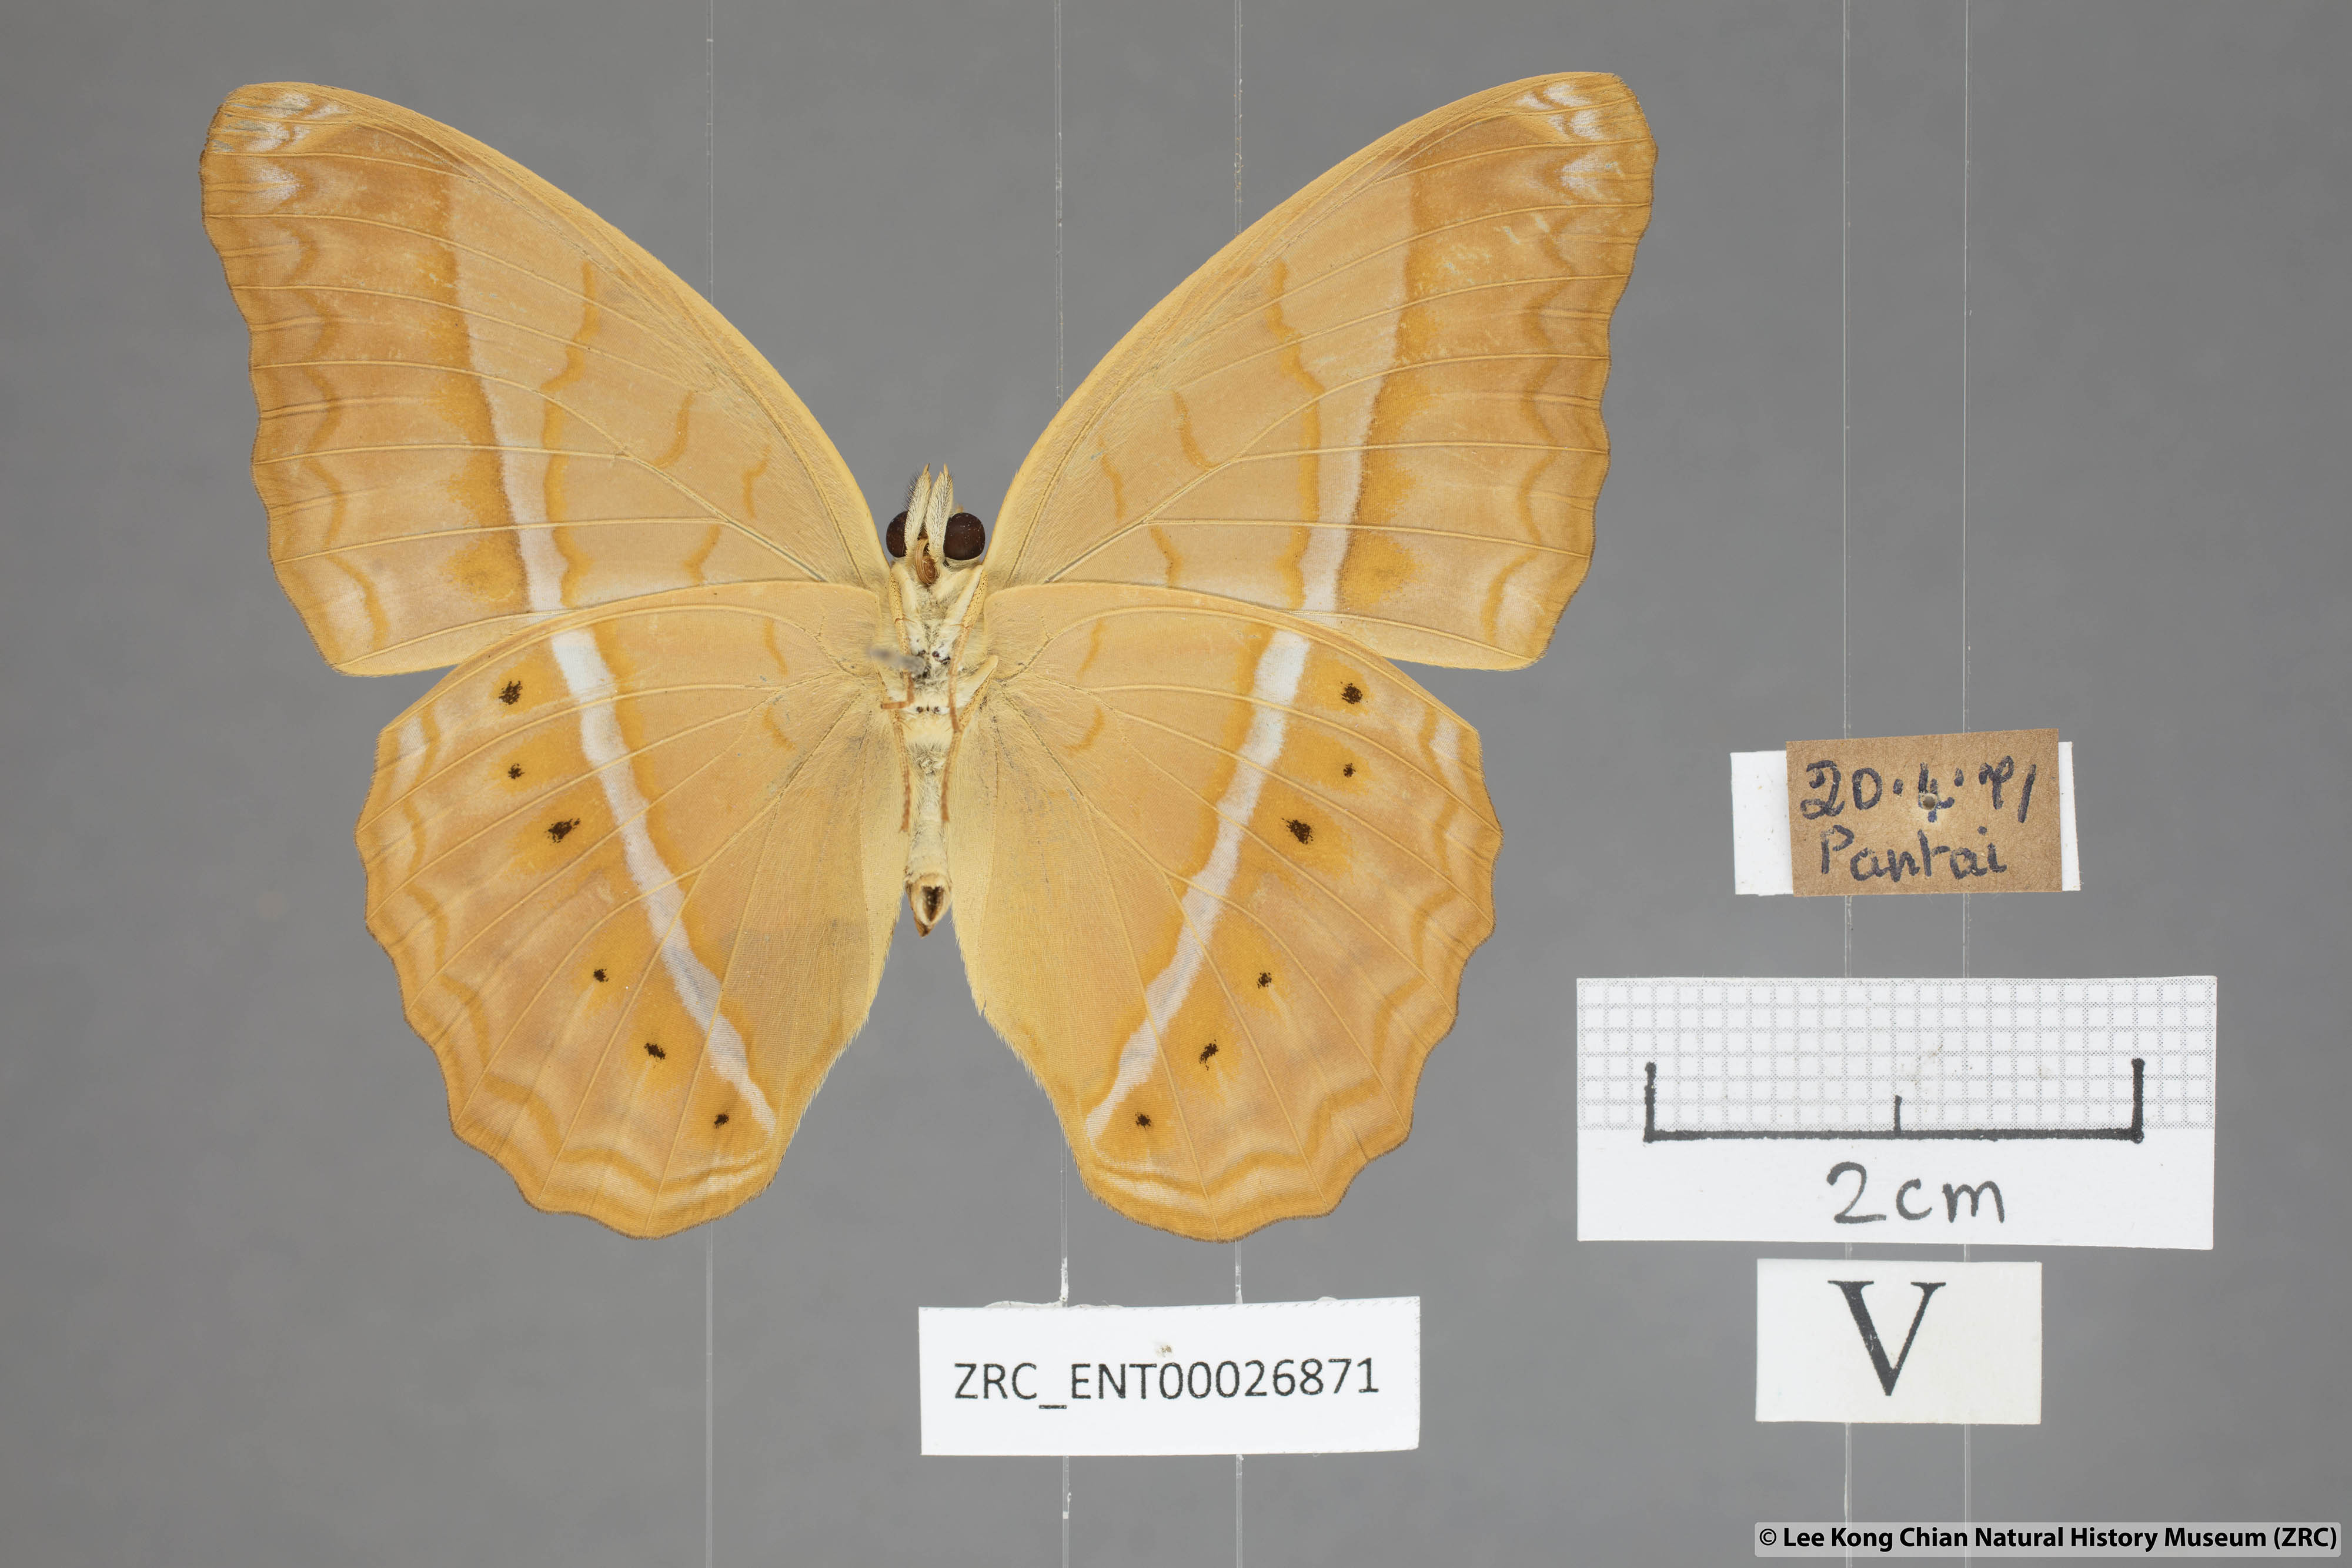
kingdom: Animalia
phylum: Arthropoda
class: Insecta
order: Lepidoptera
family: Nymphalidae
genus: Cirrochroa
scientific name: Cirrochroa malaya
